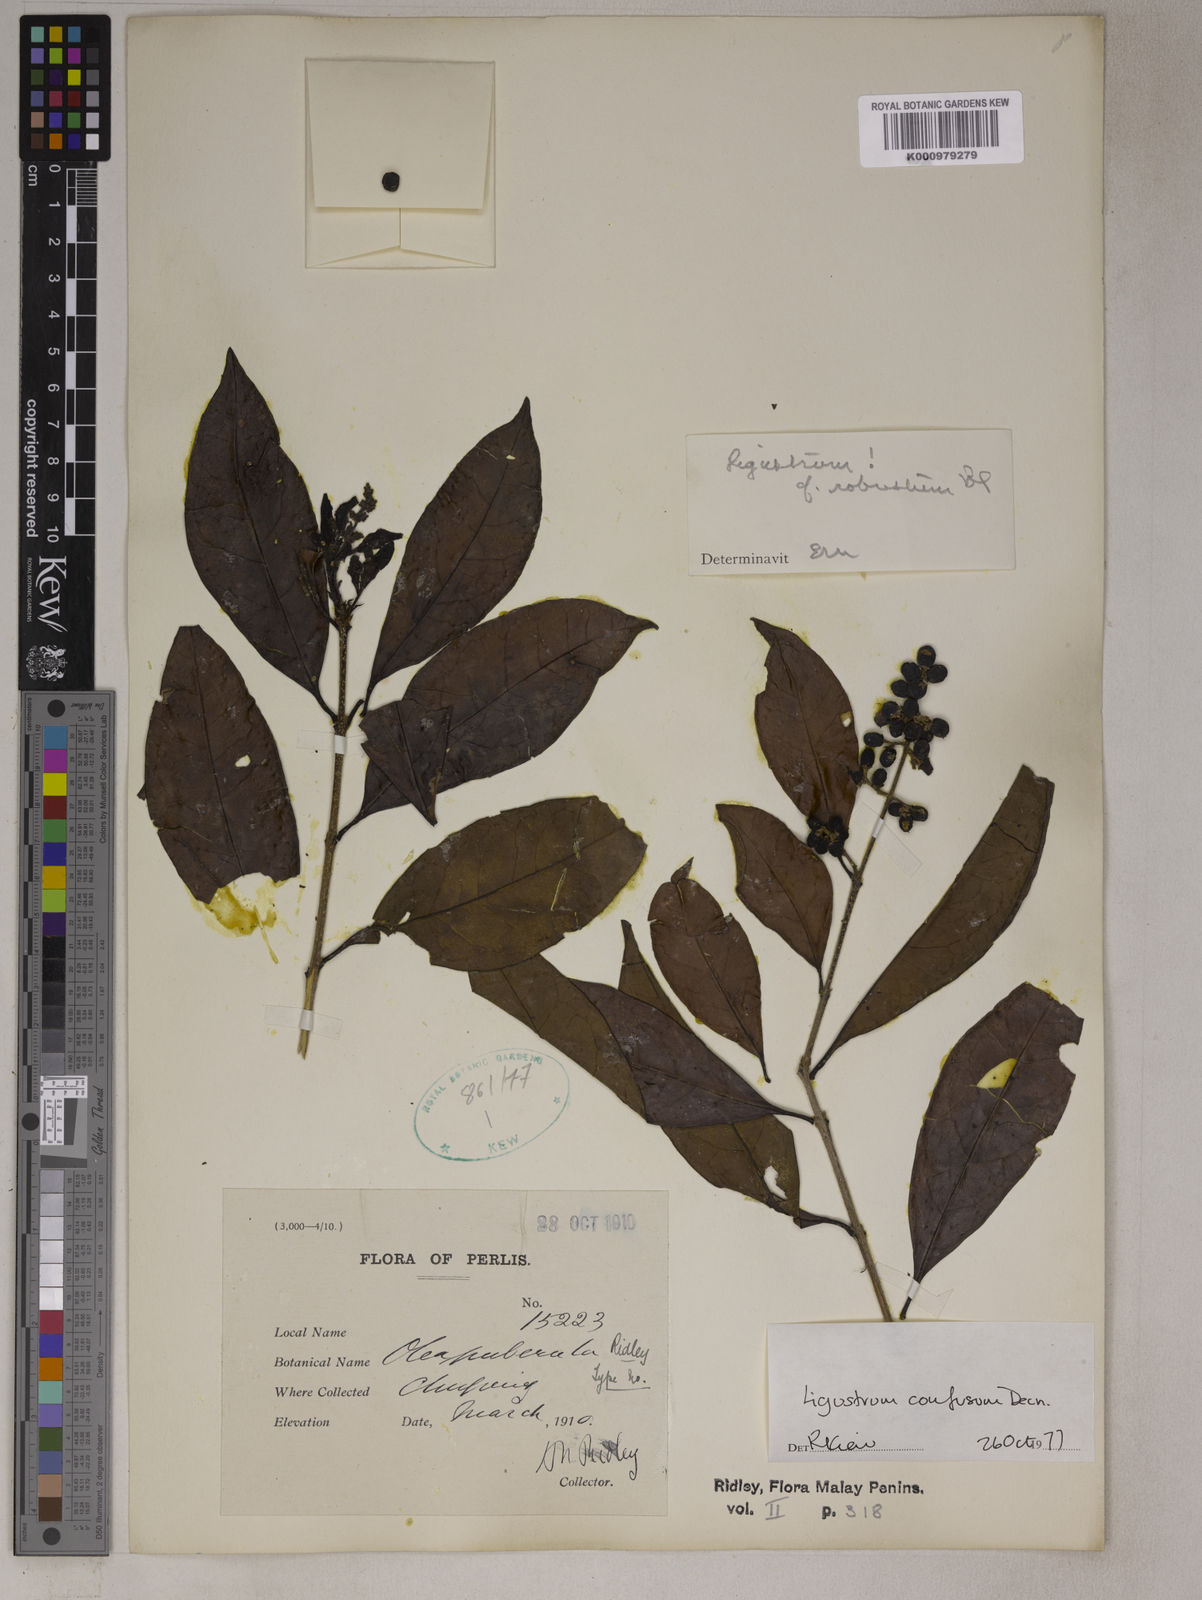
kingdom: Plantae
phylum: Tracheophyta
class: Magnoliopsida
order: Lamiales
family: Oleaceae
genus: Ligustrum
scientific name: Ligustrum confusum
